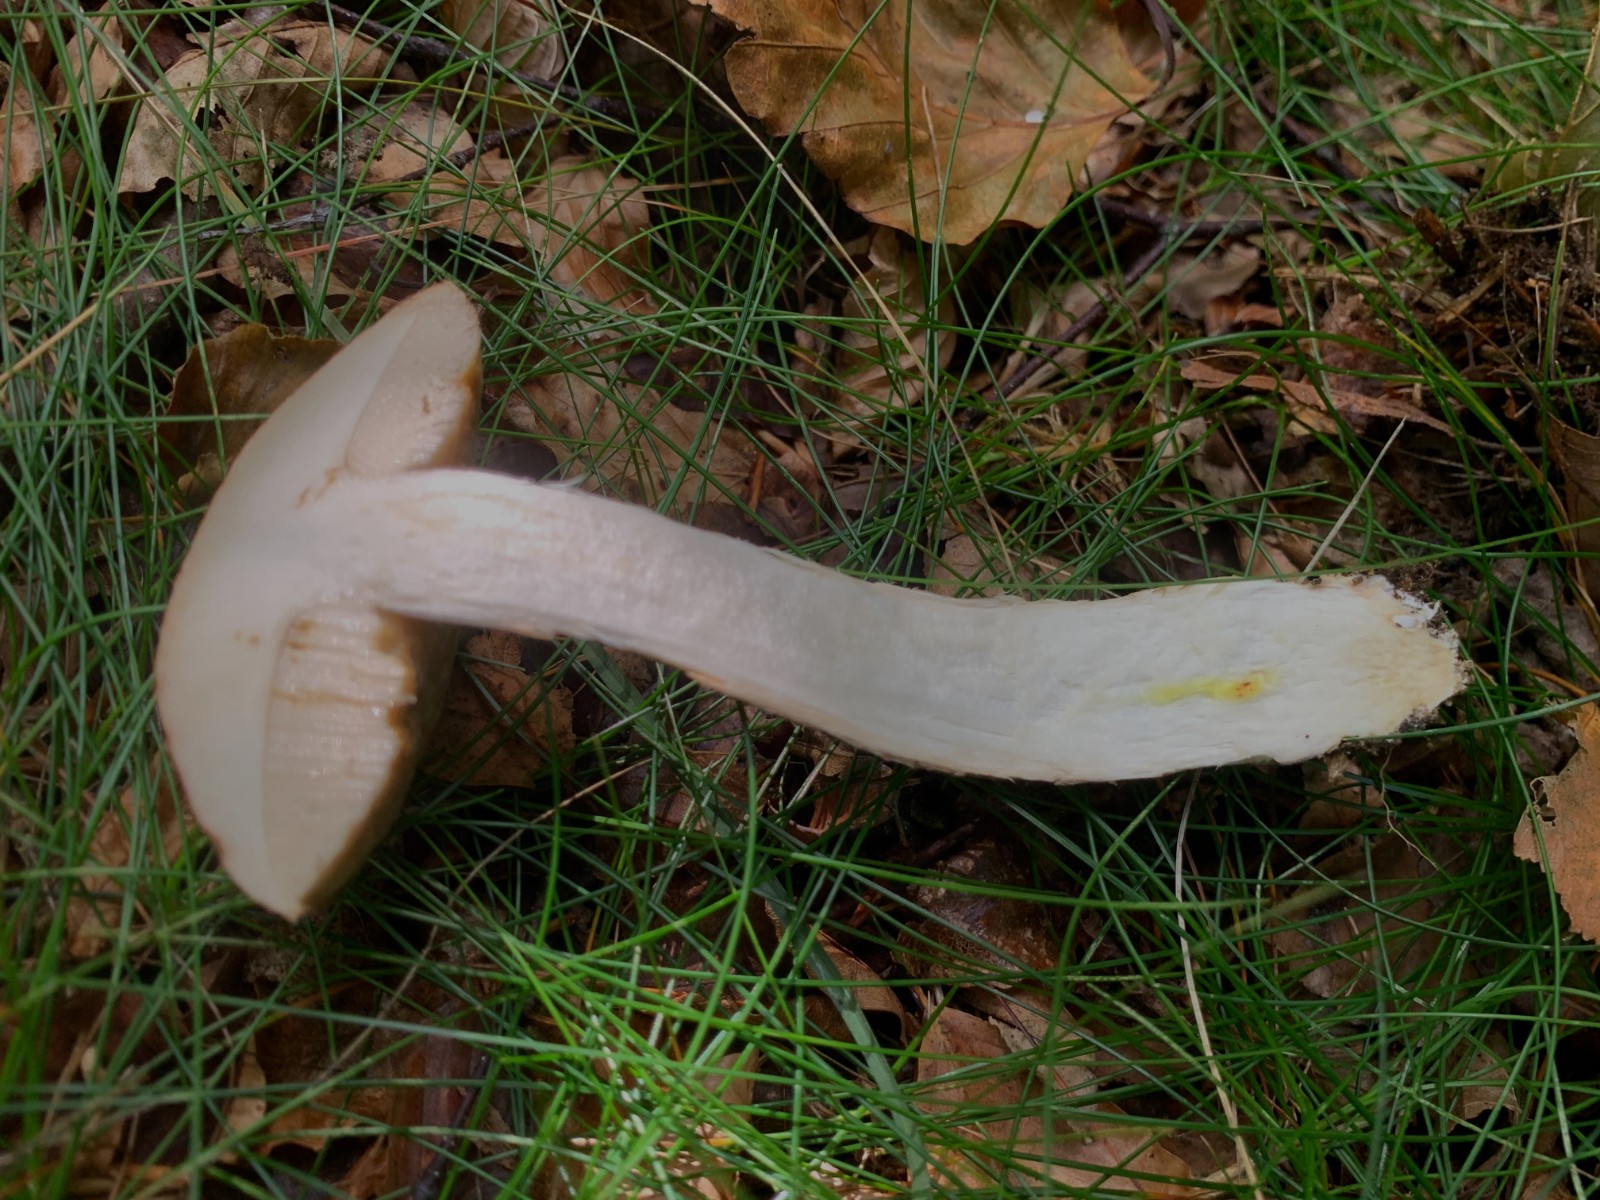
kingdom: Fungi
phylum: Basidiomycota
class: Agaricomycetes
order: Boletales
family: Boletaceae
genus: Leccinum
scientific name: Leccinum scabrum
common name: brun skælrørhat
